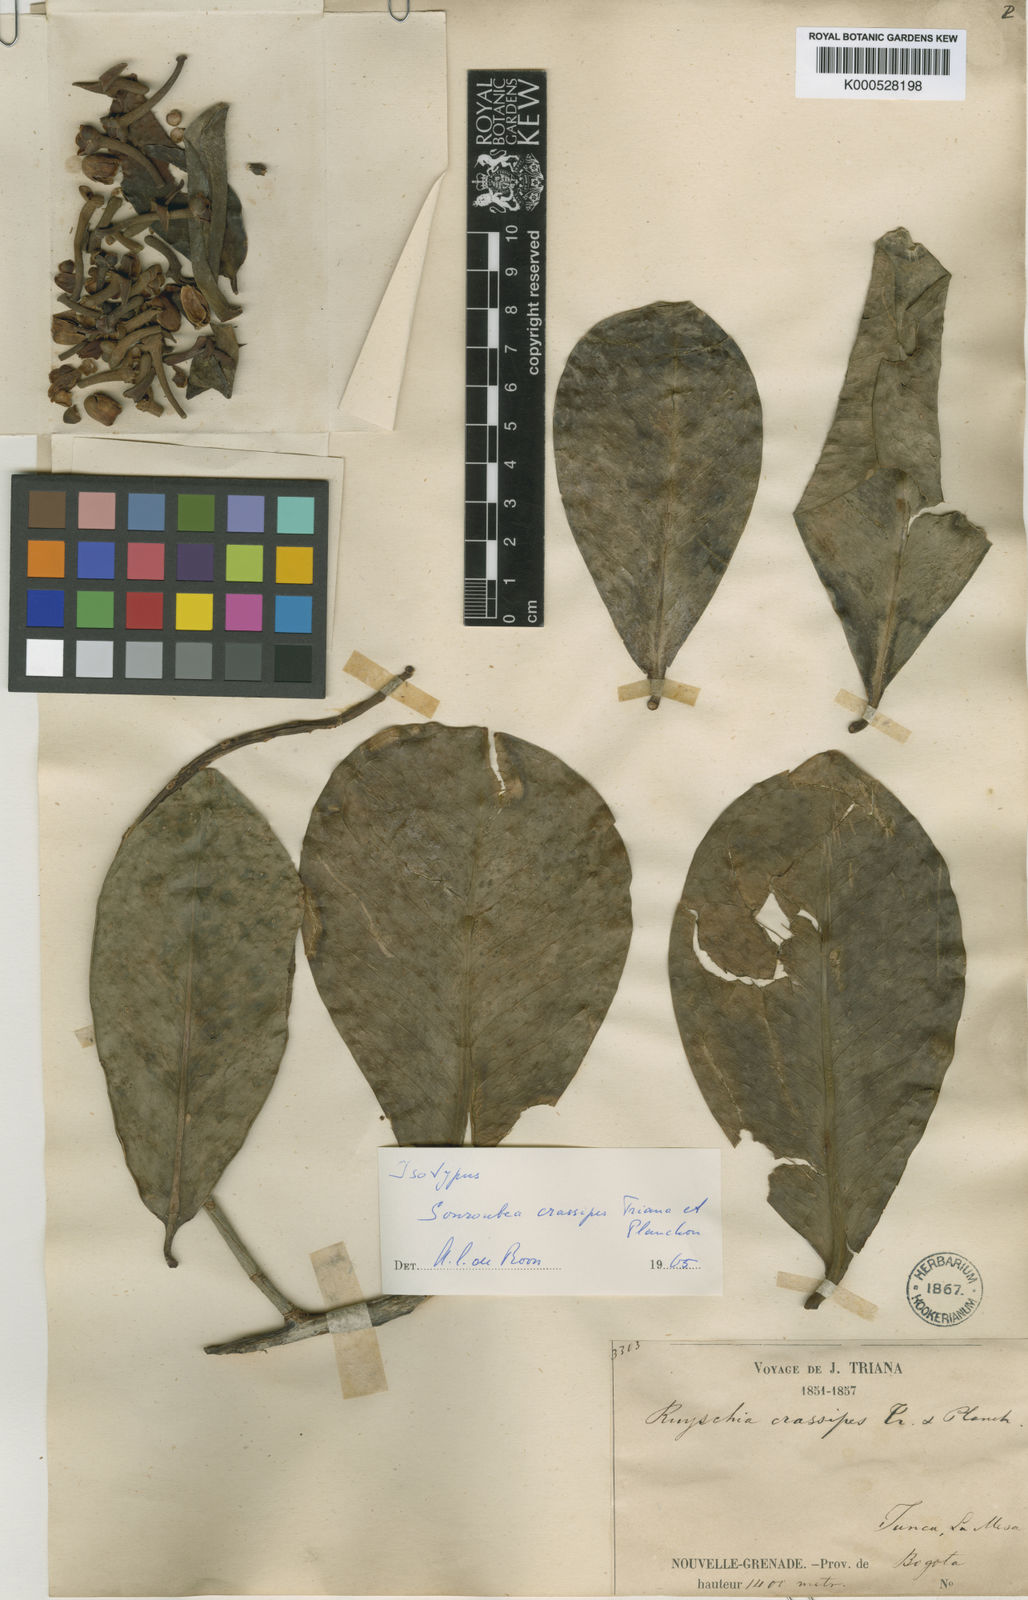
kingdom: Plantae
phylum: Tracheophyta
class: Magnoliopsida
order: Ericales
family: Marcgraviaceae
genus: Souroubea
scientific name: Souroubea crassipes
